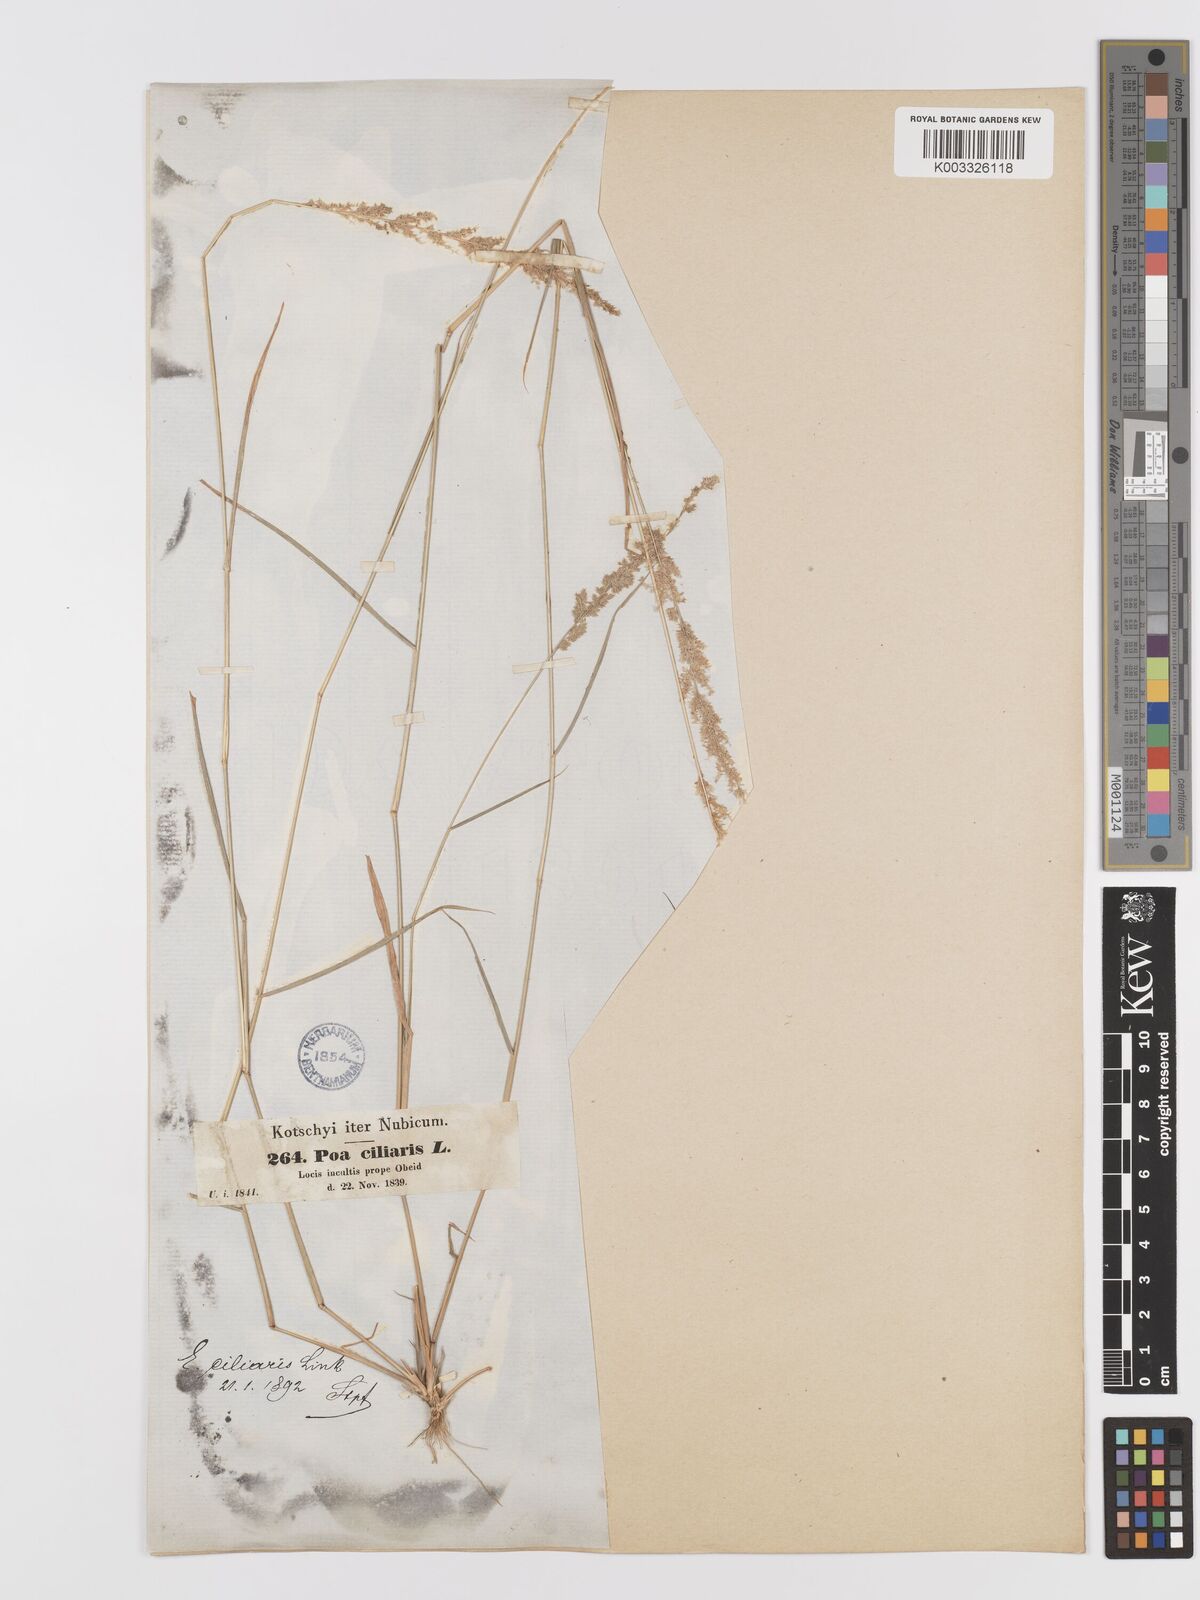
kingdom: Plantae
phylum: Tracheophyta
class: Liliopsida
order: Poales
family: Poaceae
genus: Eragrostis
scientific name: Eragrostis ciliaris
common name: Gophertail lovegrass
